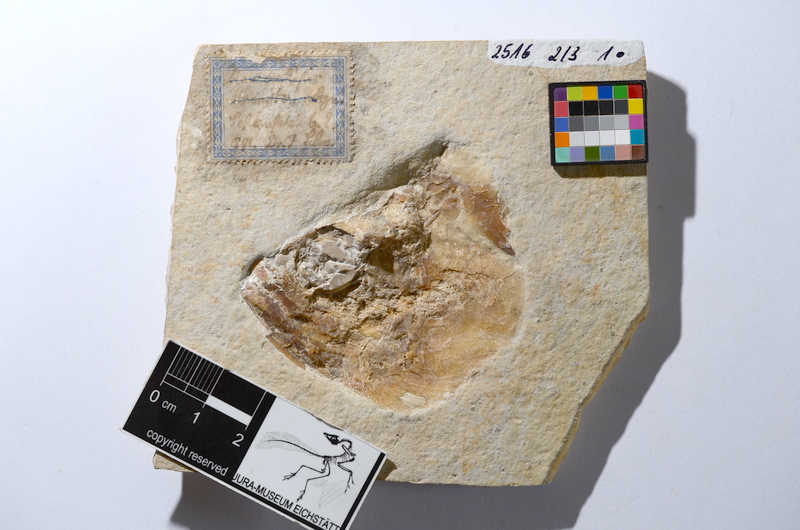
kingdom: Animalia
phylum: Chordata
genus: Thrissops
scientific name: Thrissops formosus
